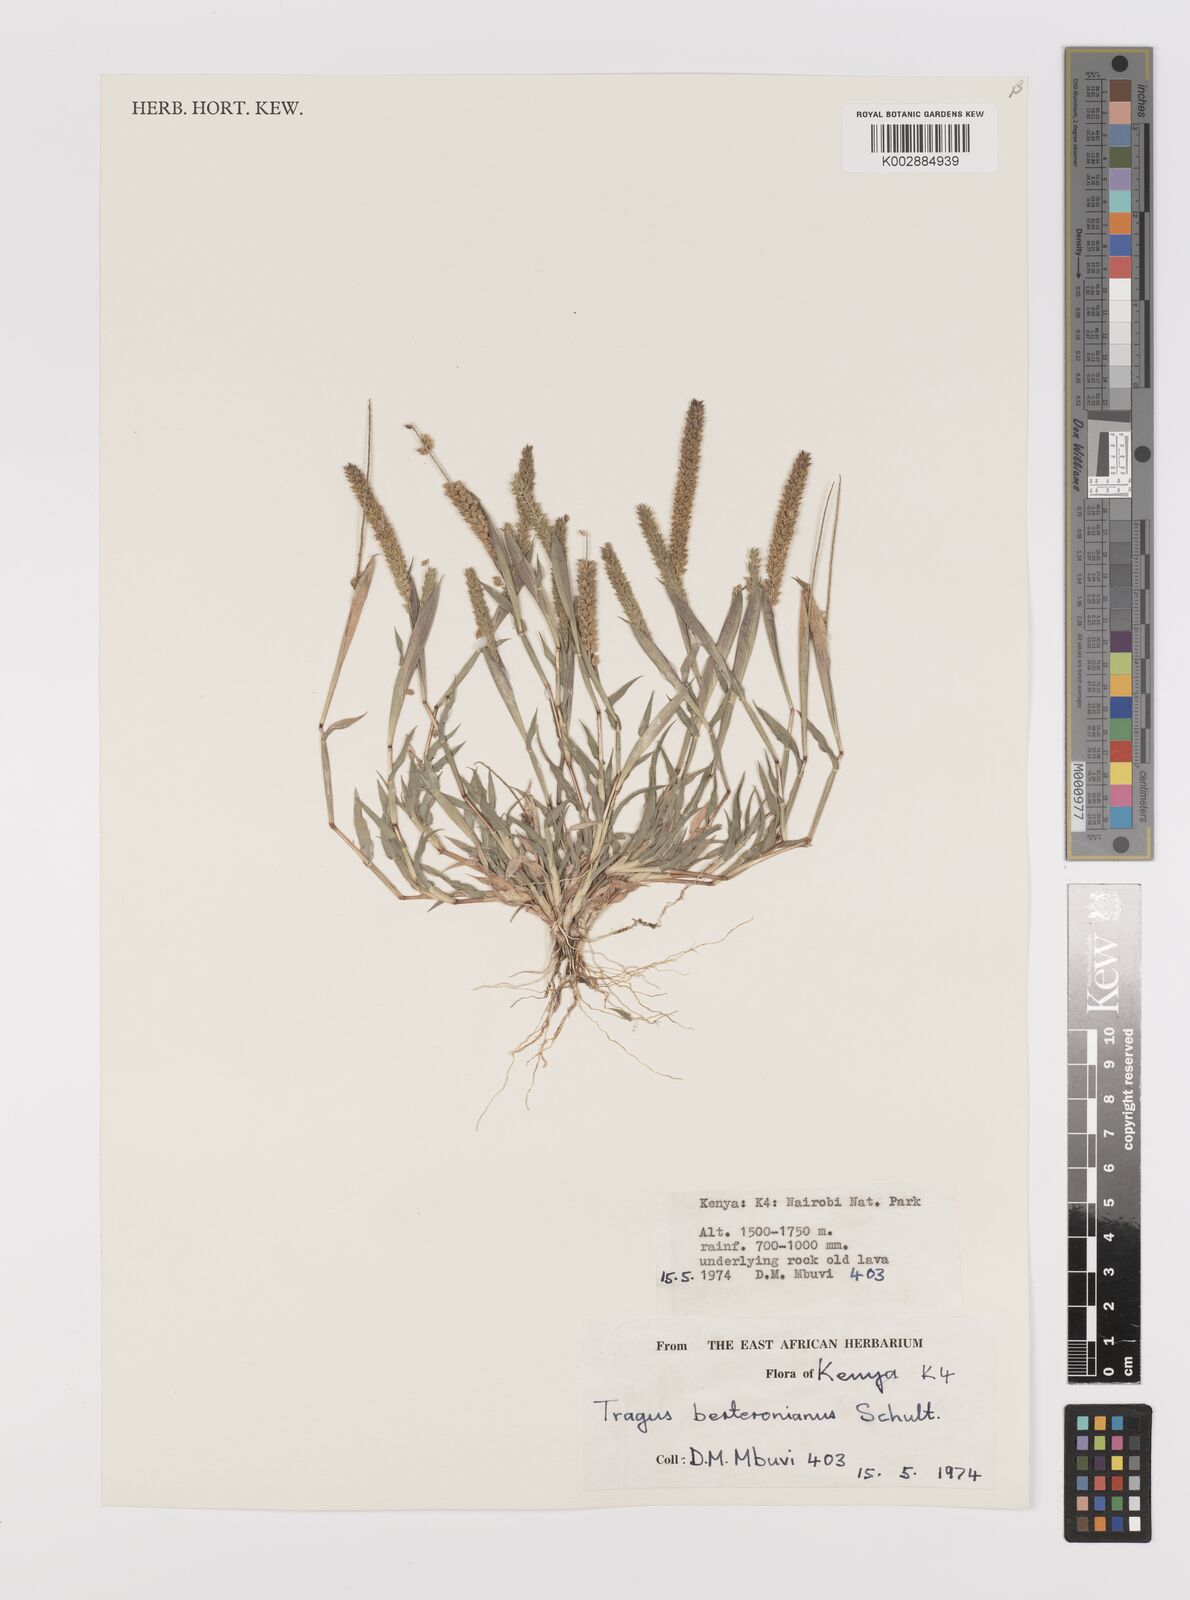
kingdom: Plantae
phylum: Tracheophyta
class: Liliopsida
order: Poales
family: Poaceae
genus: Tragus
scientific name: Tragus berteronianus
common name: African bur-grass
